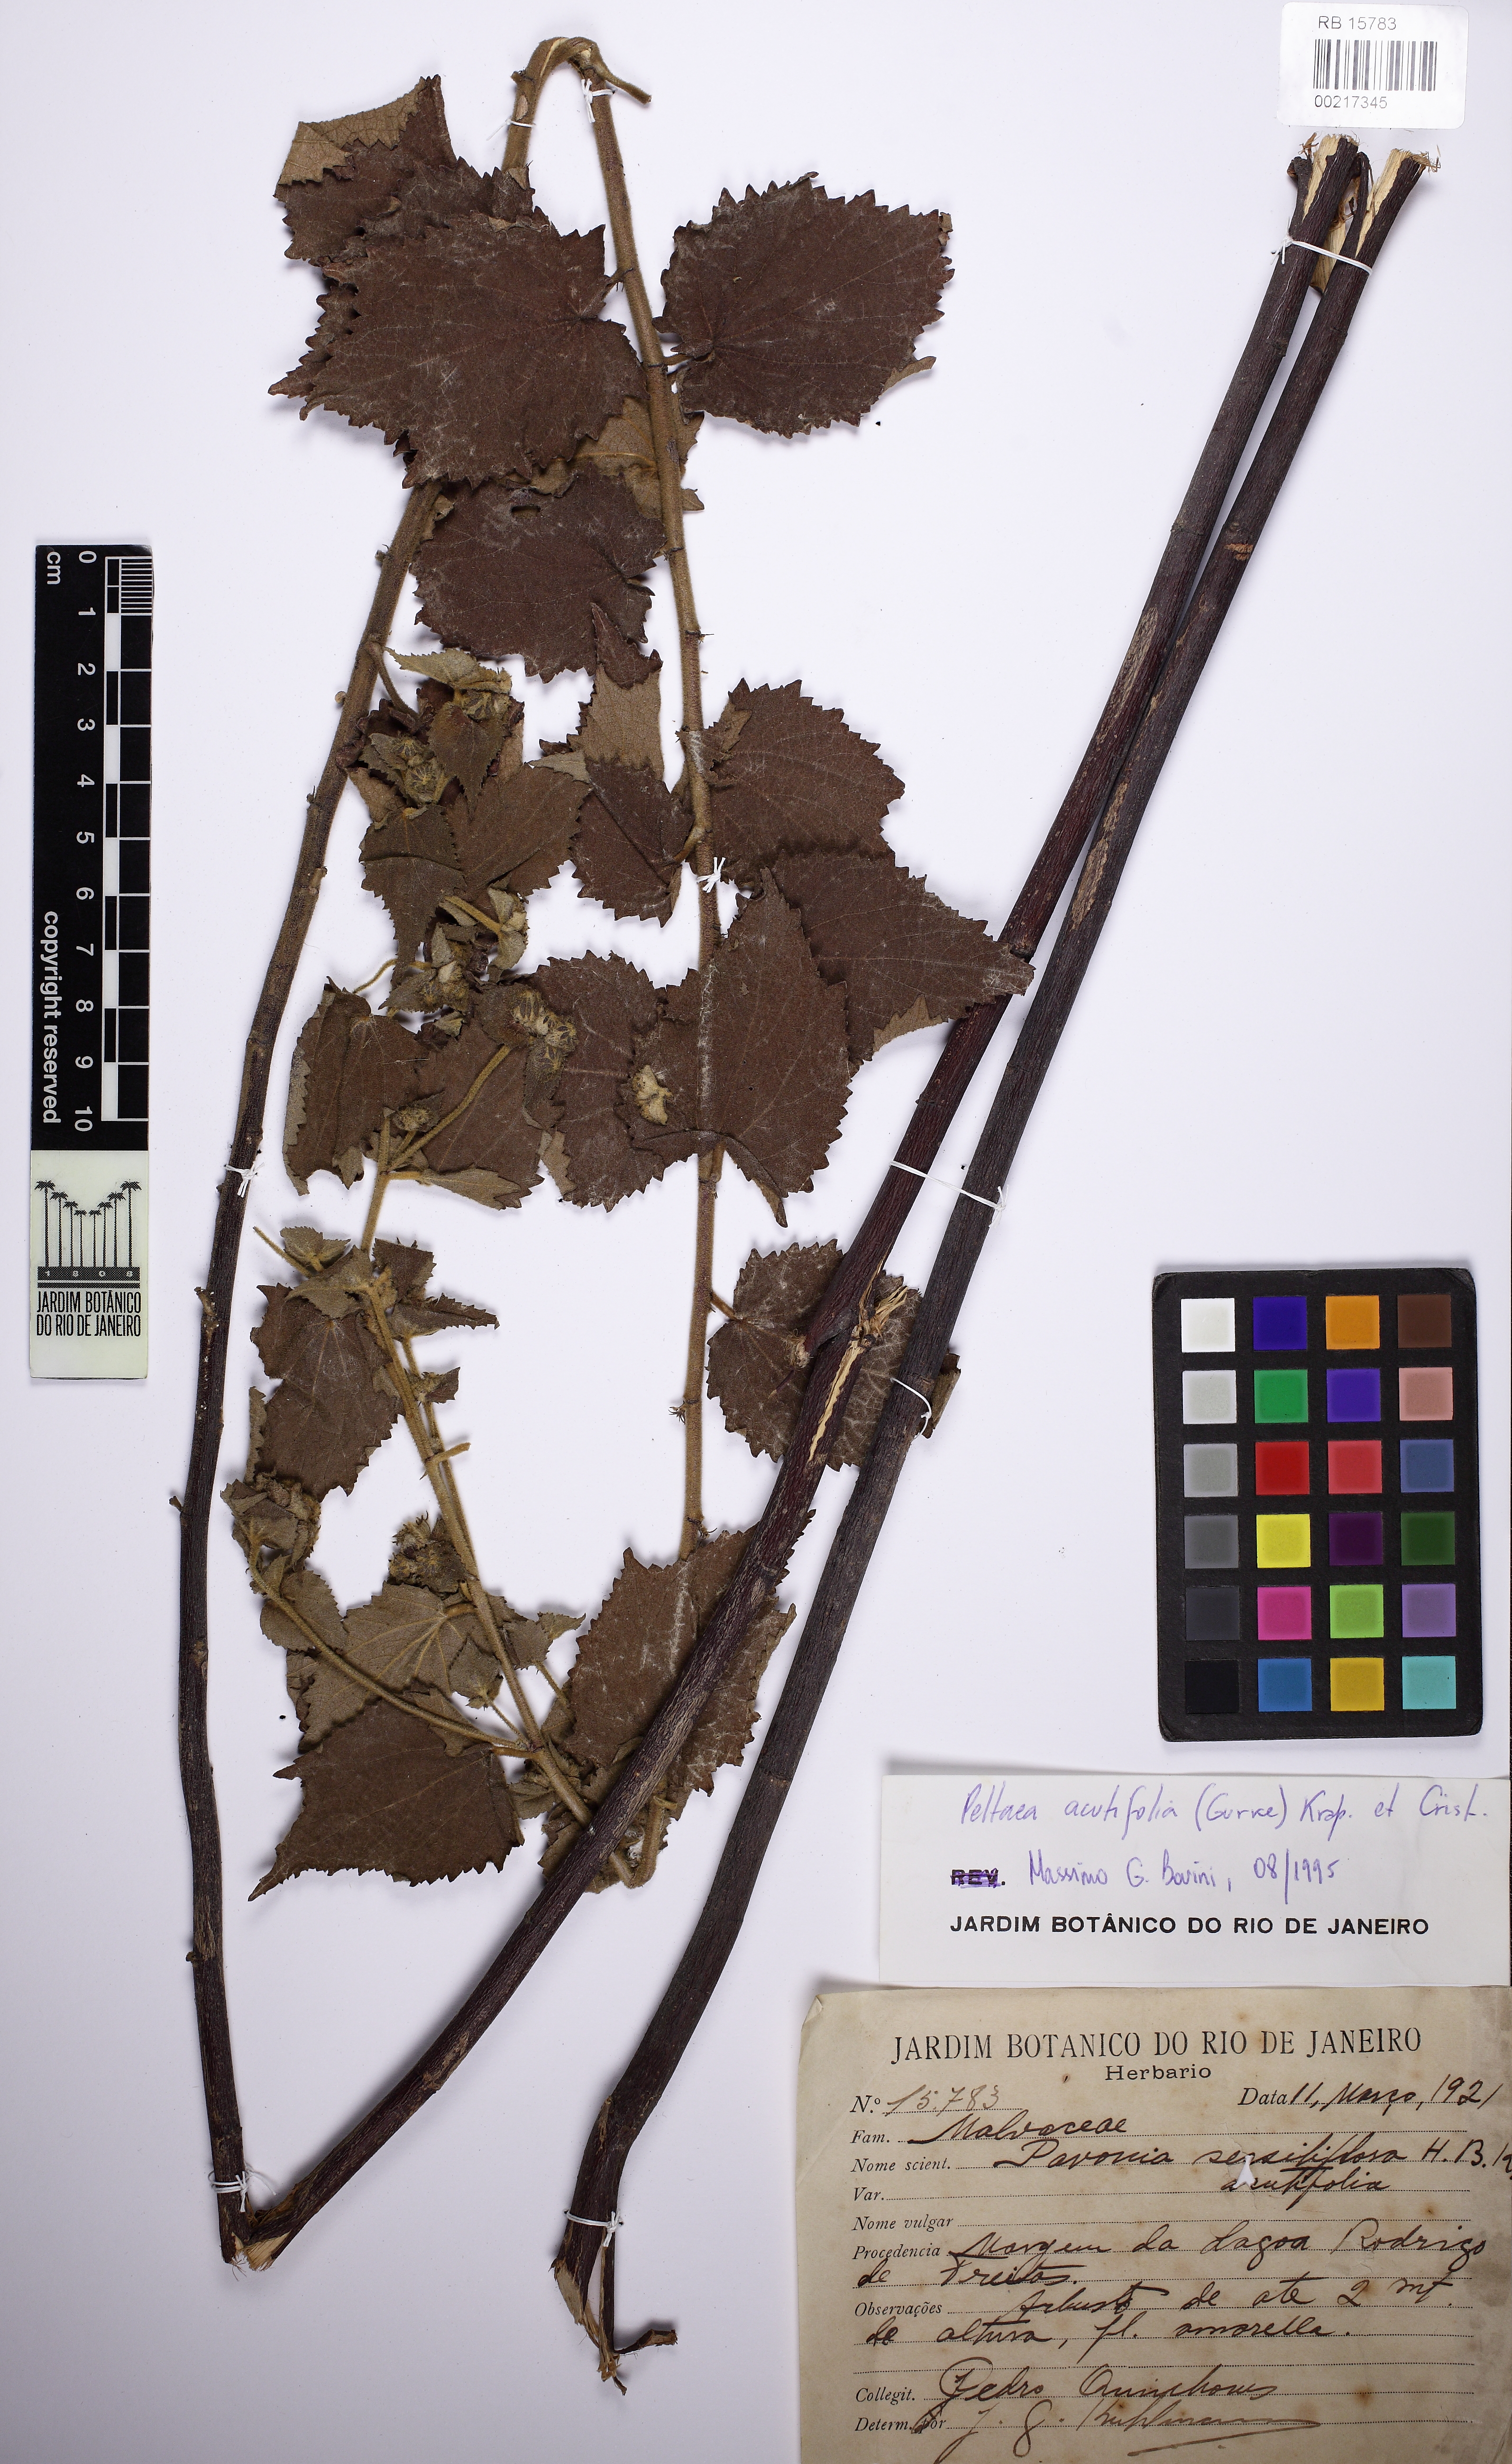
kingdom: Plantae
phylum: Tracheophyta
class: Magnoliopsida
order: Malvales
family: Malvaceae
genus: Peltaea
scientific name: Peltaea obsita
